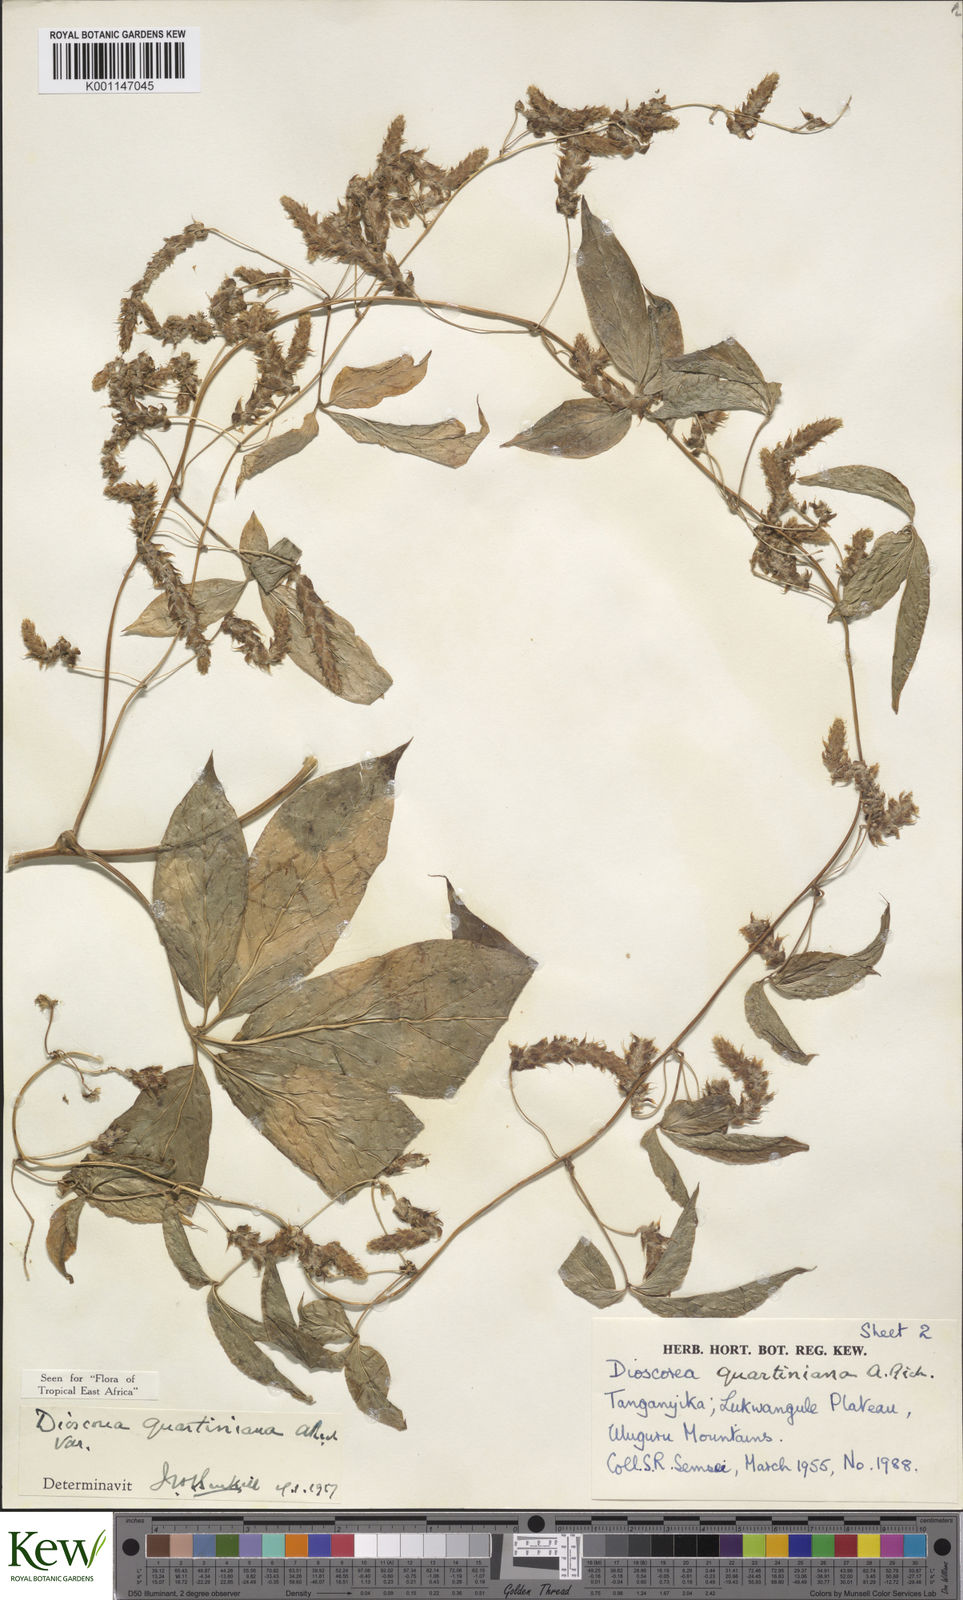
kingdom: Plantae
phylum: Tracheophyta
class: Liliopsida
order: Dioscoreales
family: Dioscoreaceae
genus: Dioscorea
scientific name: Dioscorea quartiniana
